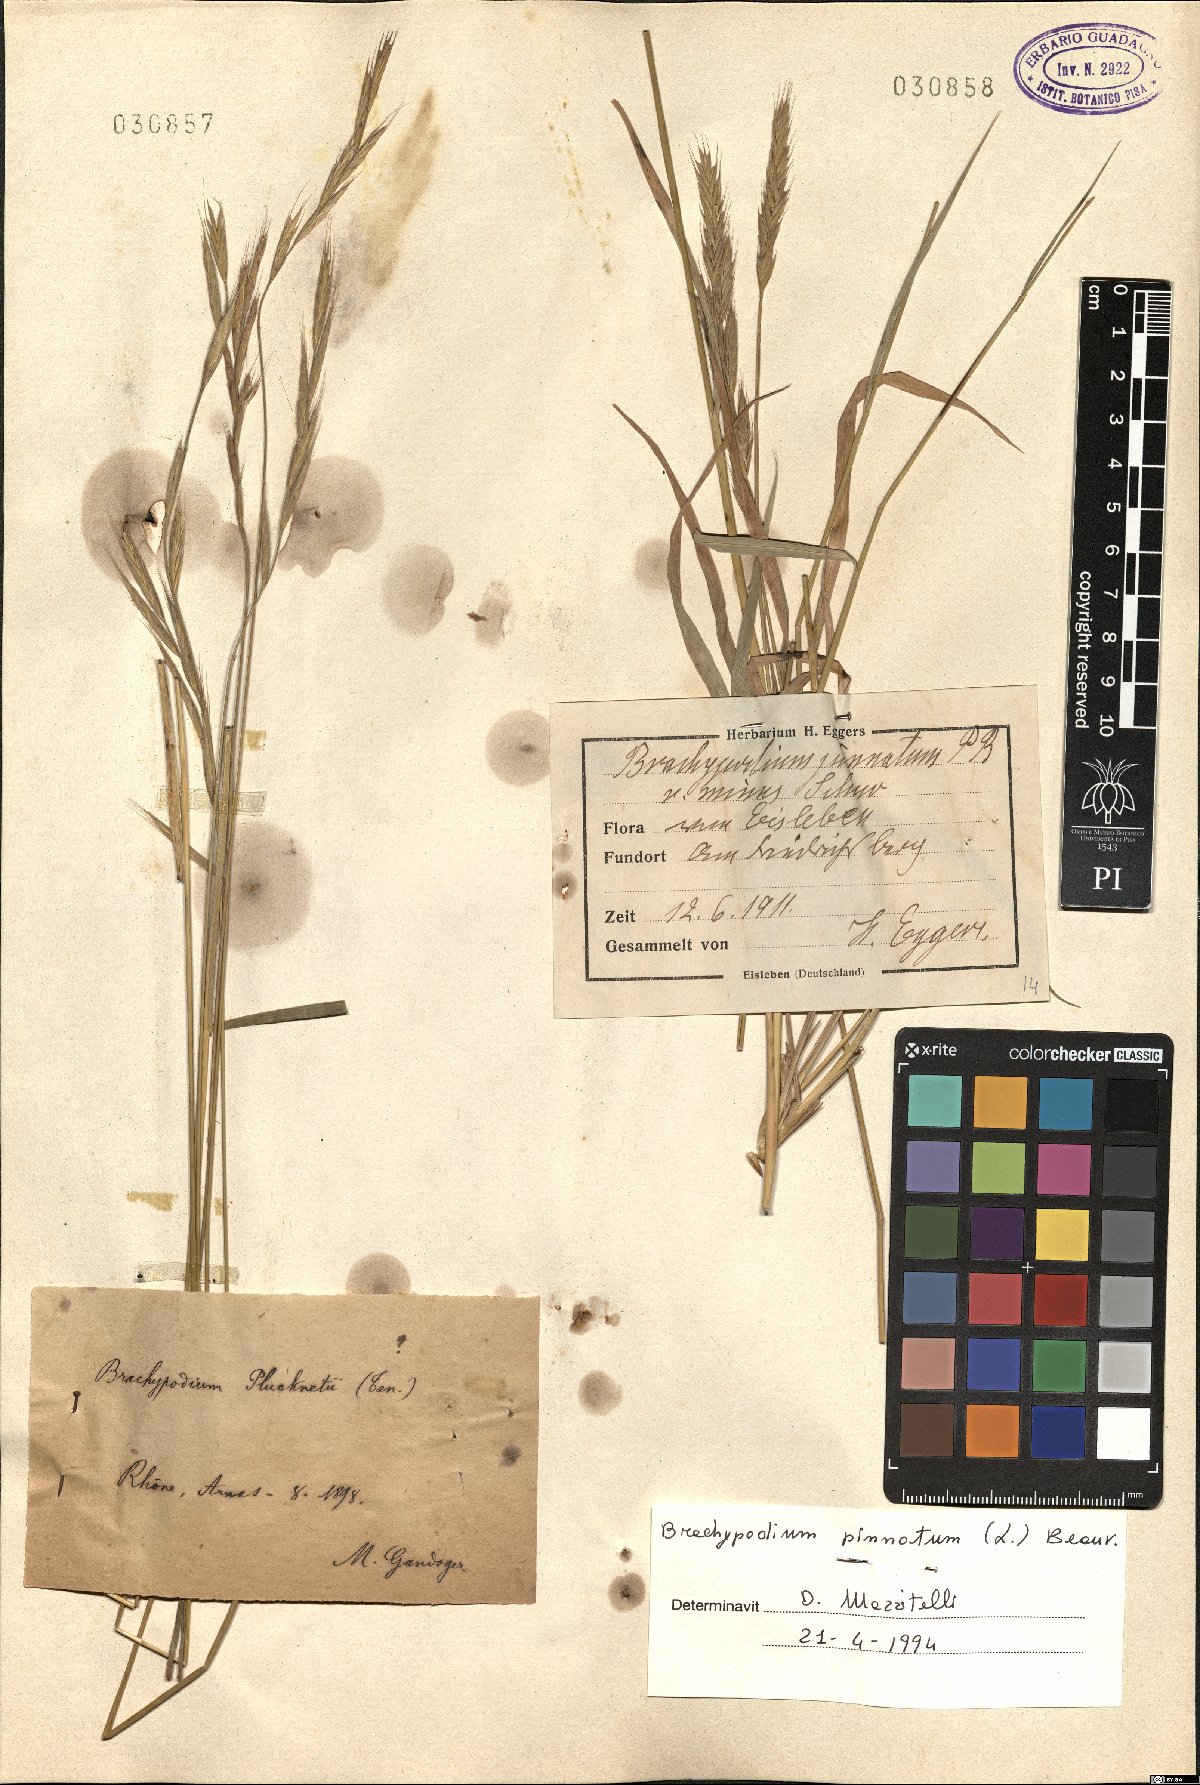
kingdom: Plantae
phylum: Tracheophyta
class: Liliopsida
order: Poales
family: Poaceae
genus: Brachypodium
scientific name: Brachypodium pinnatum
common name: Tor grass
